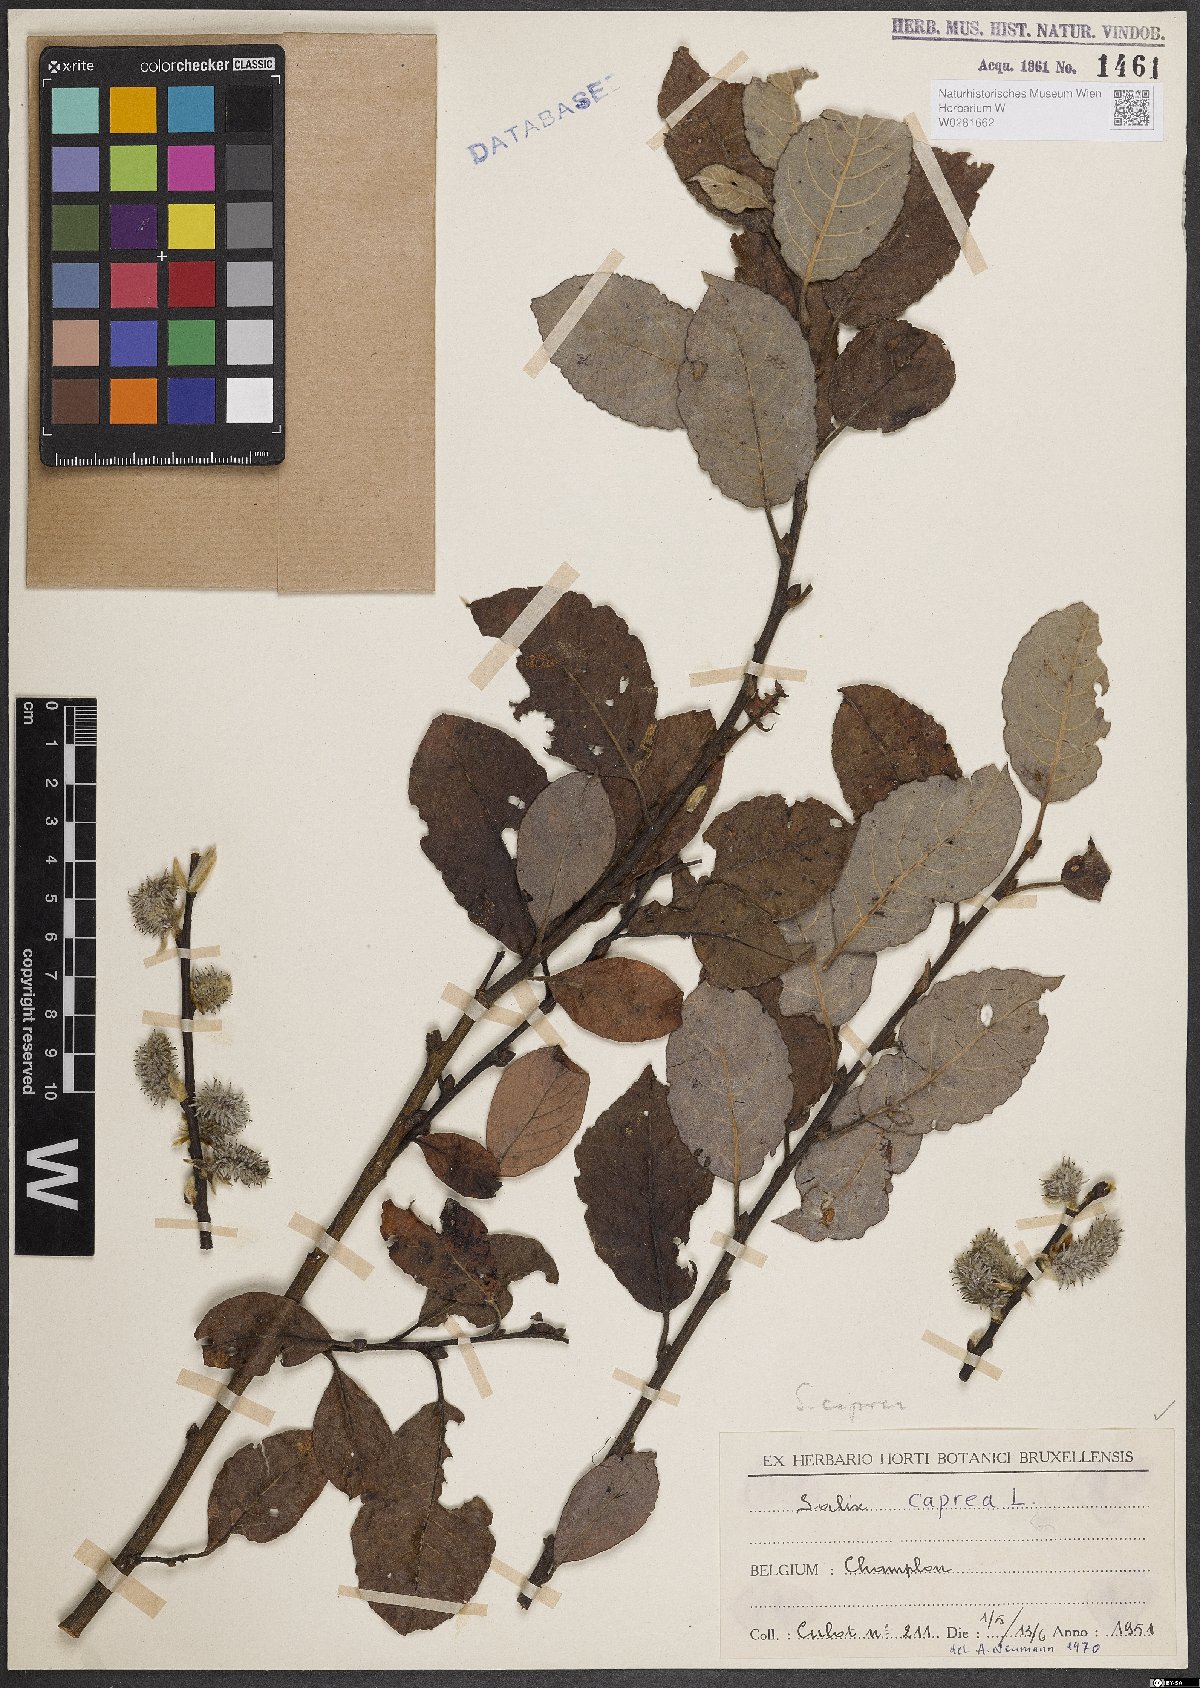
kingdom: Plantae
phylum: Tracheophyta
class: Magnoliopsida
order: Malpighiales
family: Salicaceae
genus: Salix
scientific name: Salix caprea
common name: Goat willow
